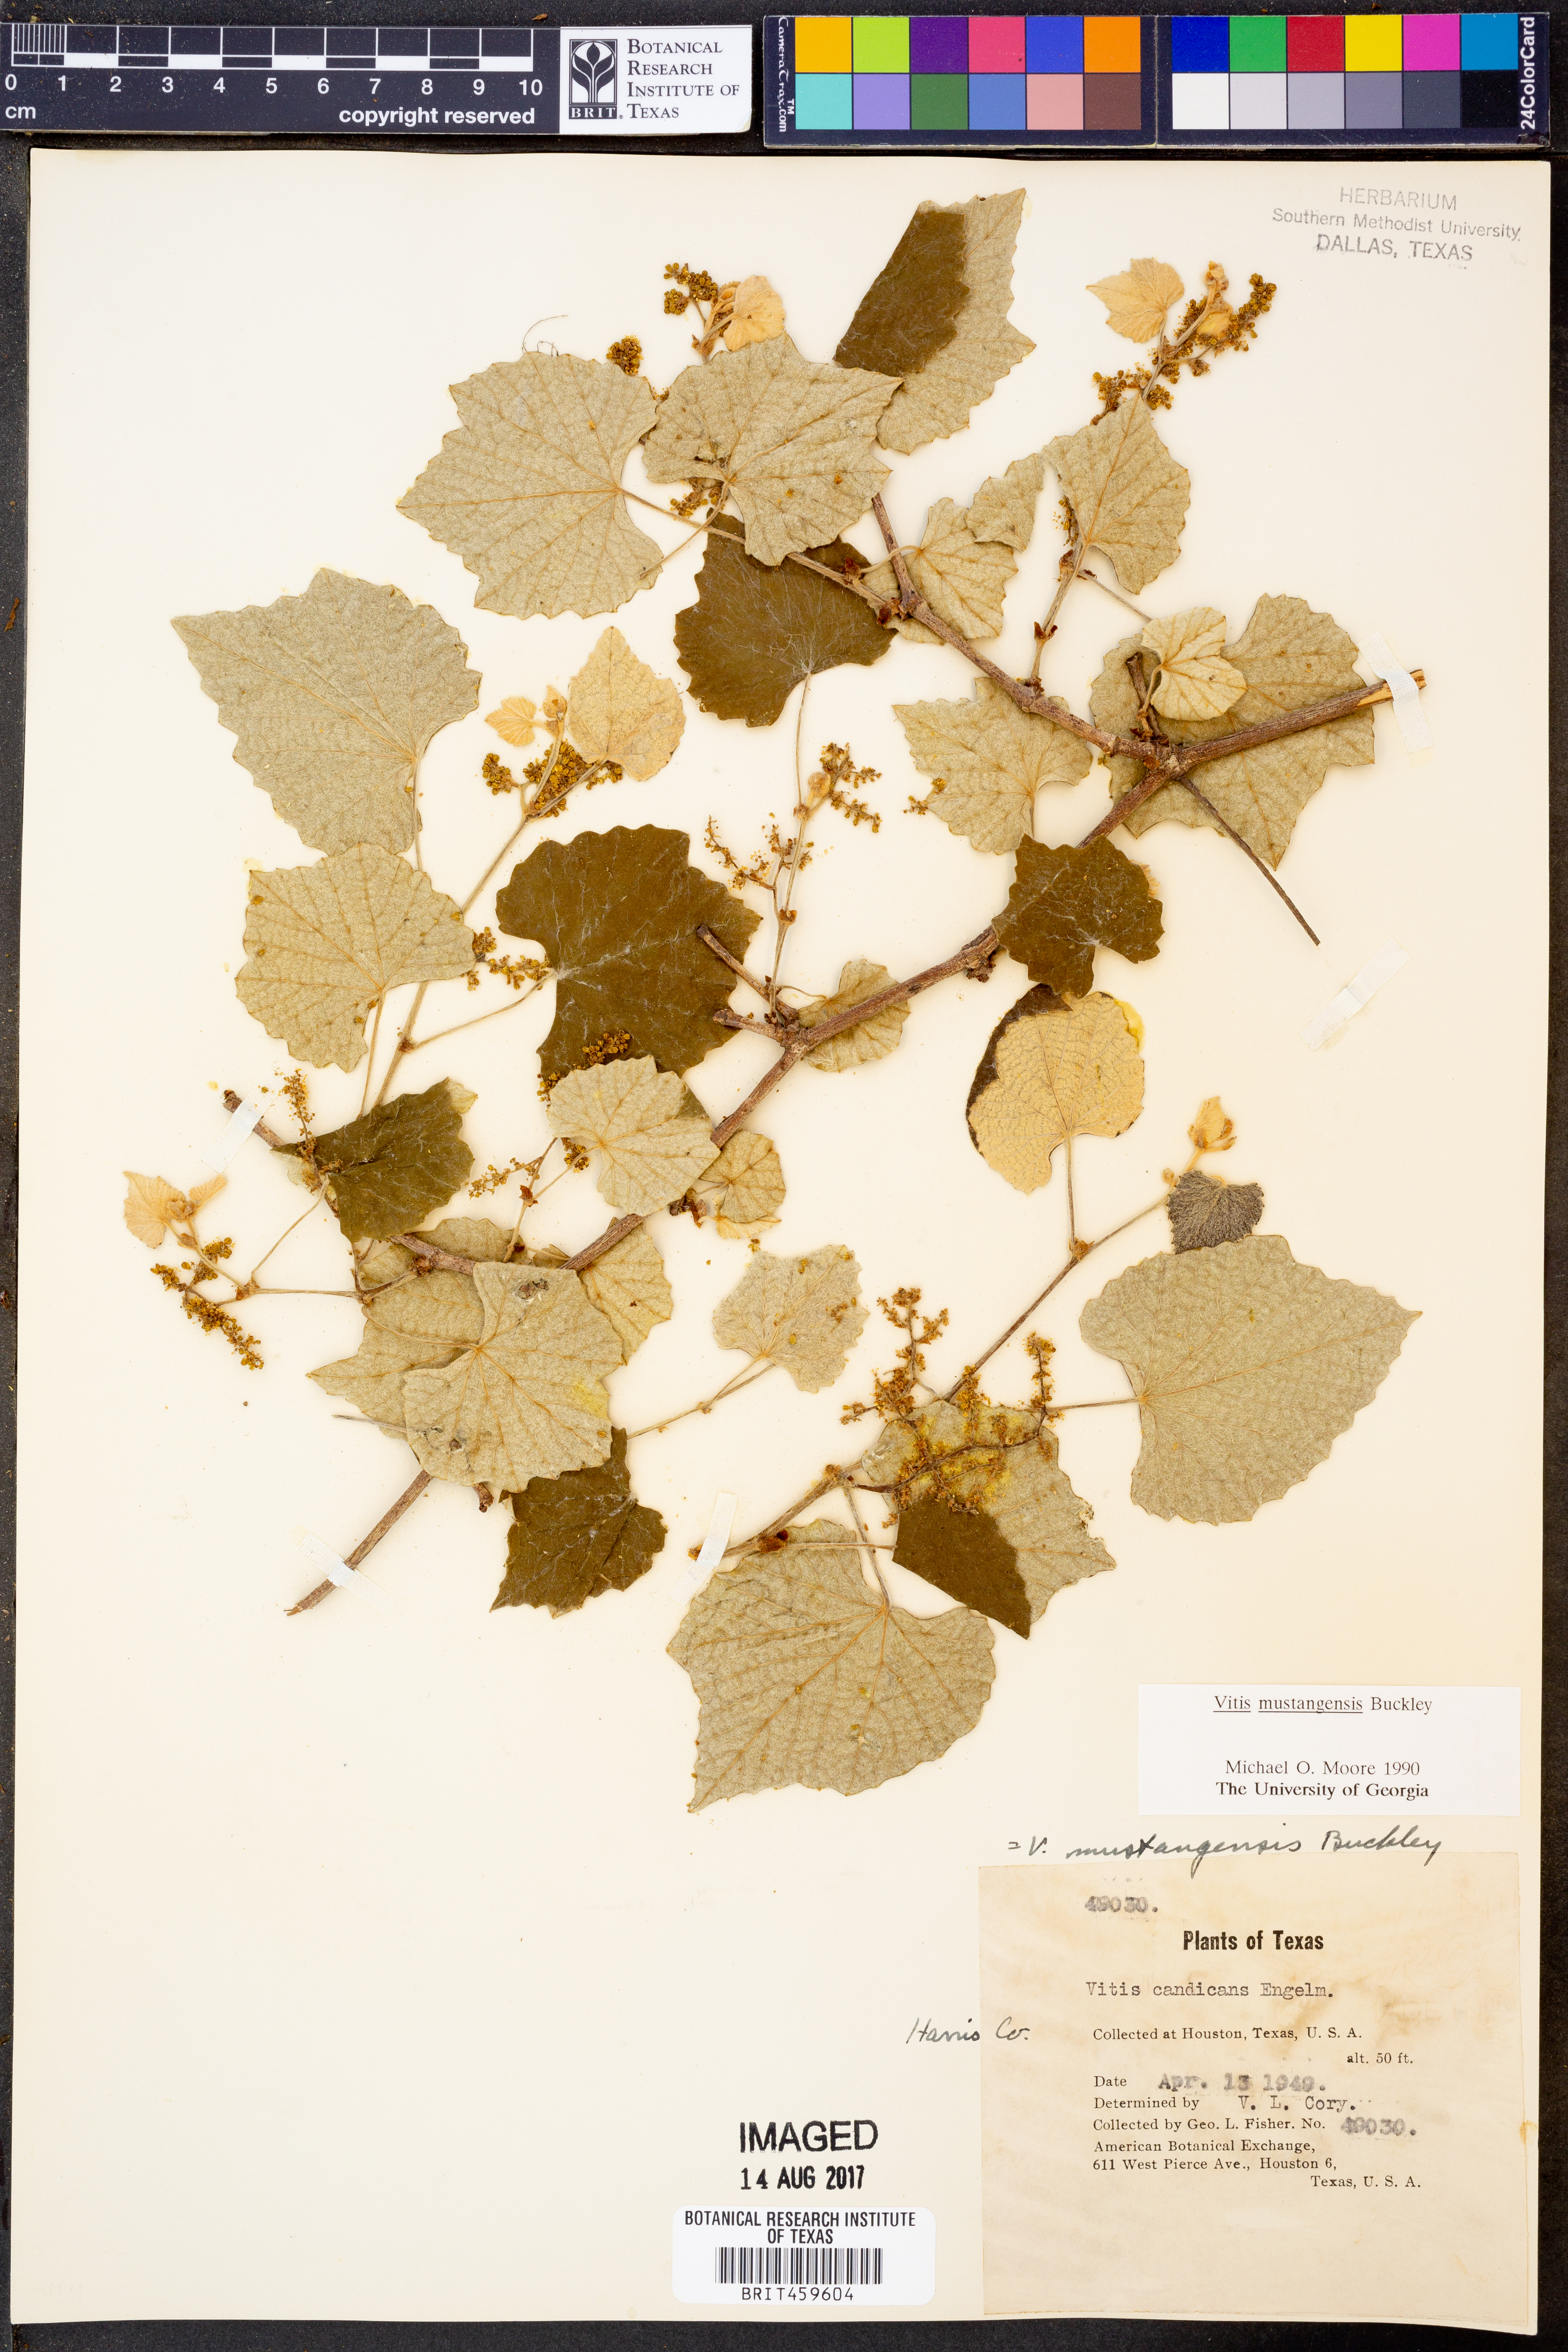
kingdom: Plantae
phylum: Tracheophyta
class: Magnoliopsida
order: Vitales
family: Vitaceae
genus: Vitis
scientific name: Vitis mustangensis
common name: Mustang grape
